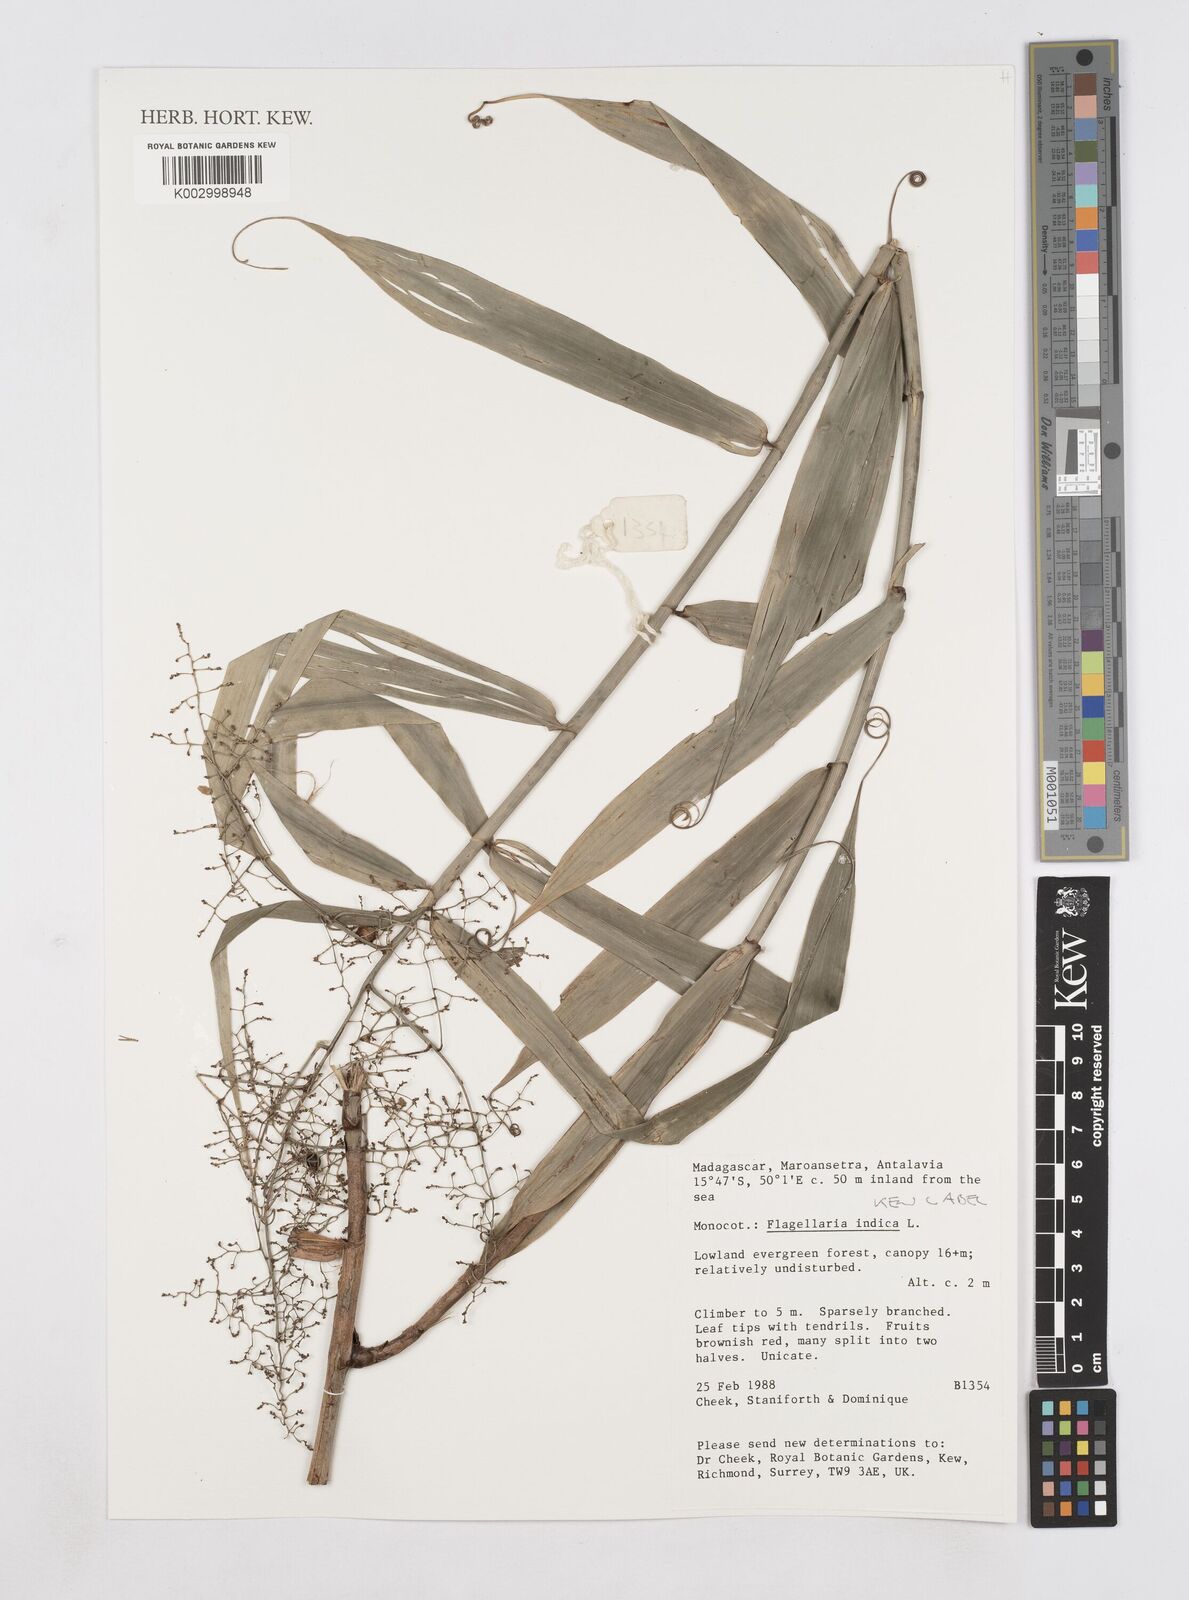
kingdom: Plantae
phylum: Tracheophyta
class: Liliopsida
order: Poales
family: Flagellariaceae
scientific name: Flagellariaceae
